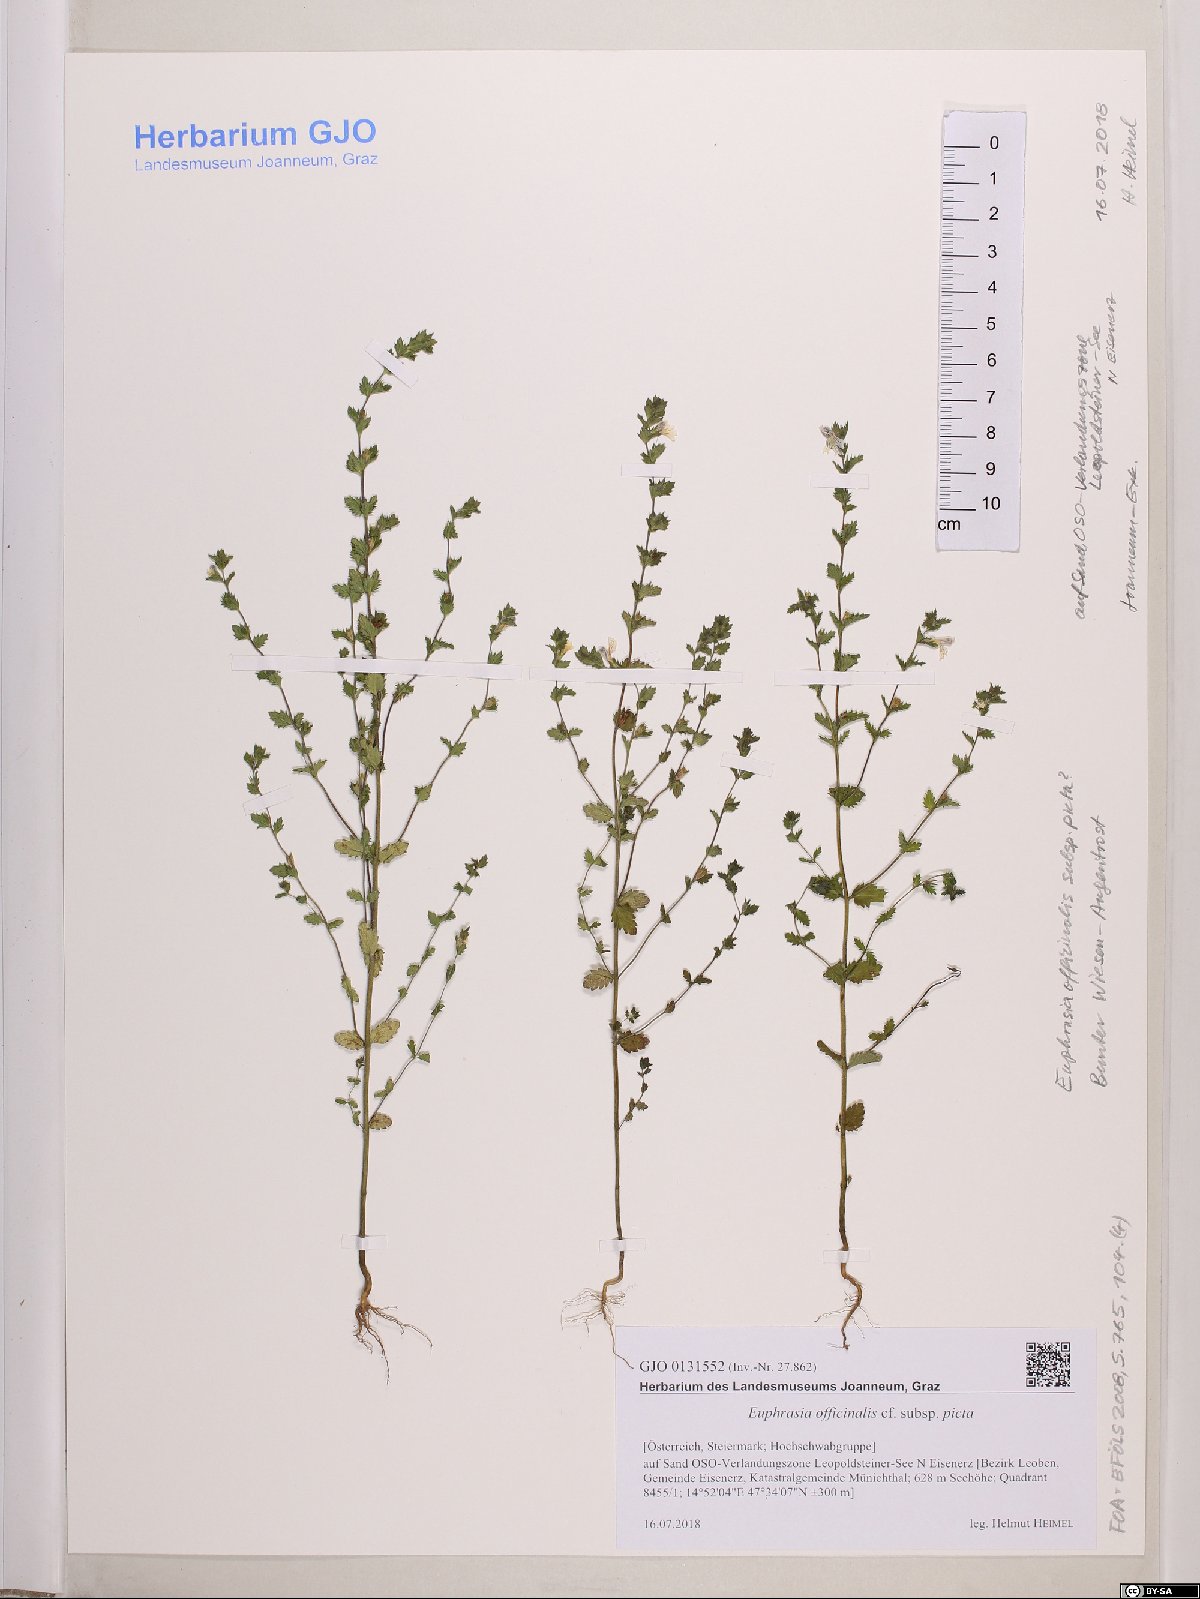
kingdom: Plantae
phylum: Tracheophyta
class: Magnoliopsida
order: Lamiales
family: Orobanchaceae
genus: Euphrasia
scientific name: Euphrasia officinalis
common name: Eyebright
